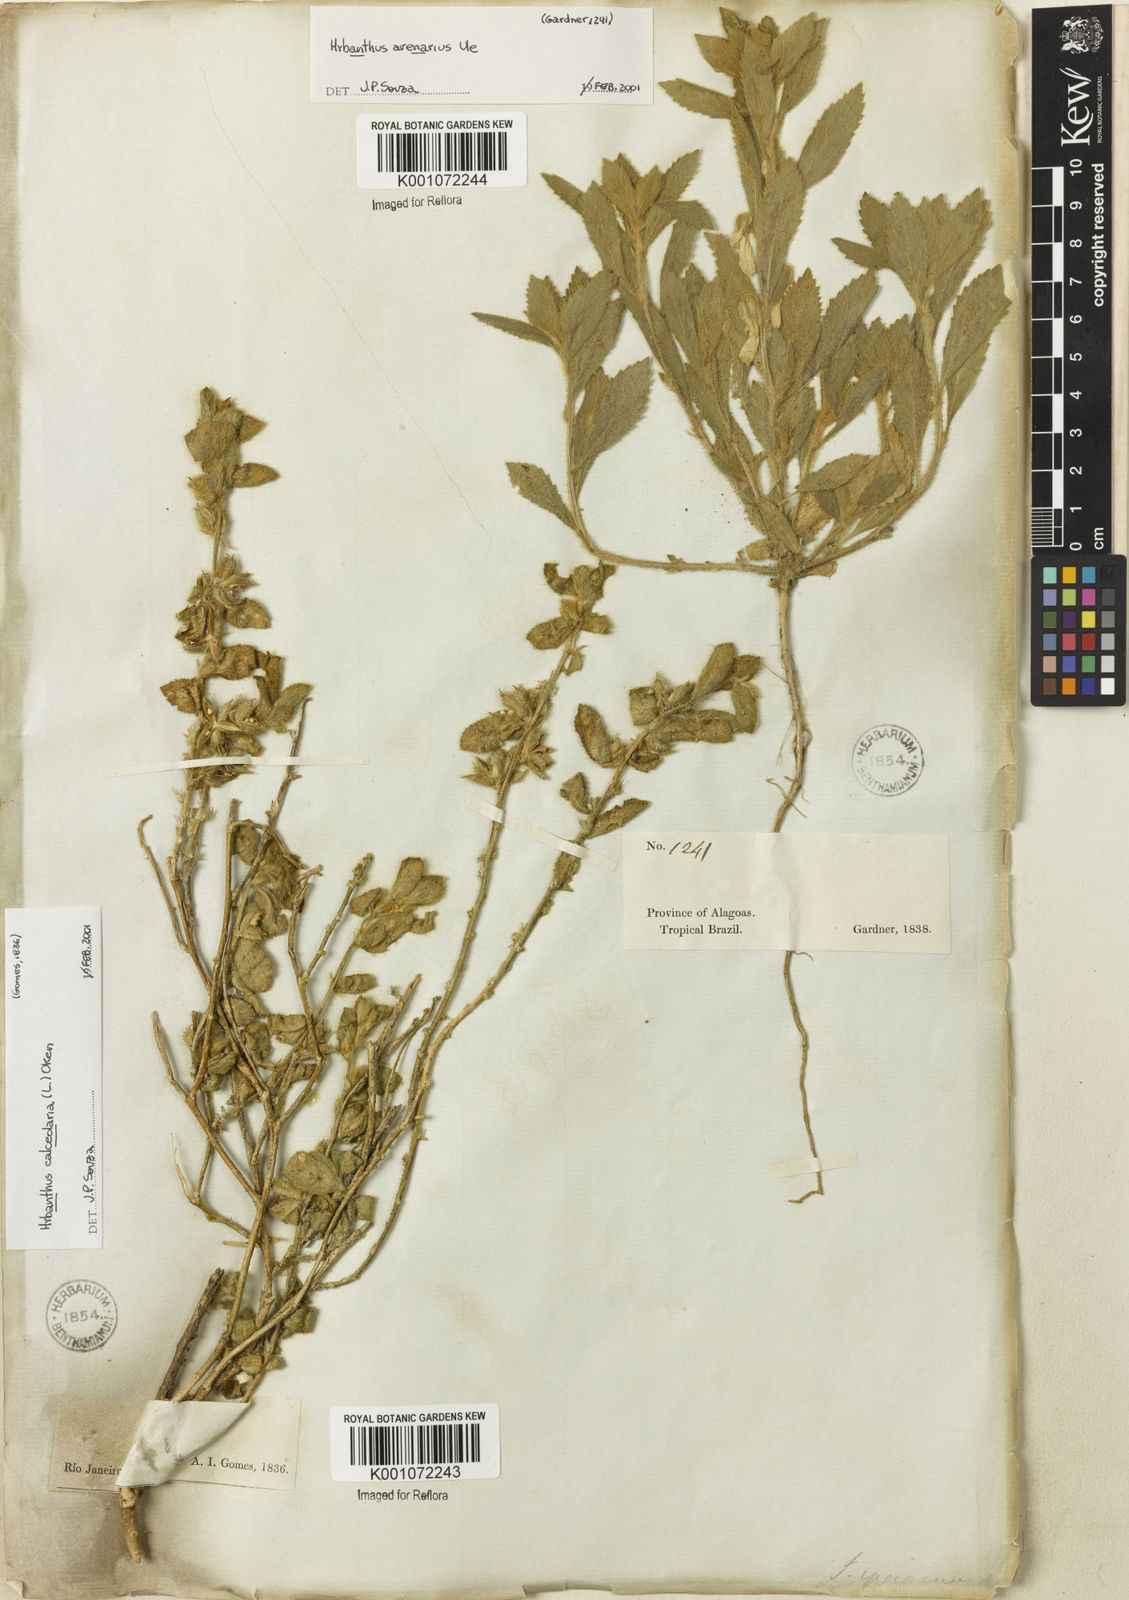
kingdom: Plantae
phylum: Tracheophyta
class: Magnoliopsida
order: Malpighiales
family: Violaceae
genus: Pombalia
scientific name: Pombalia calceolaria
